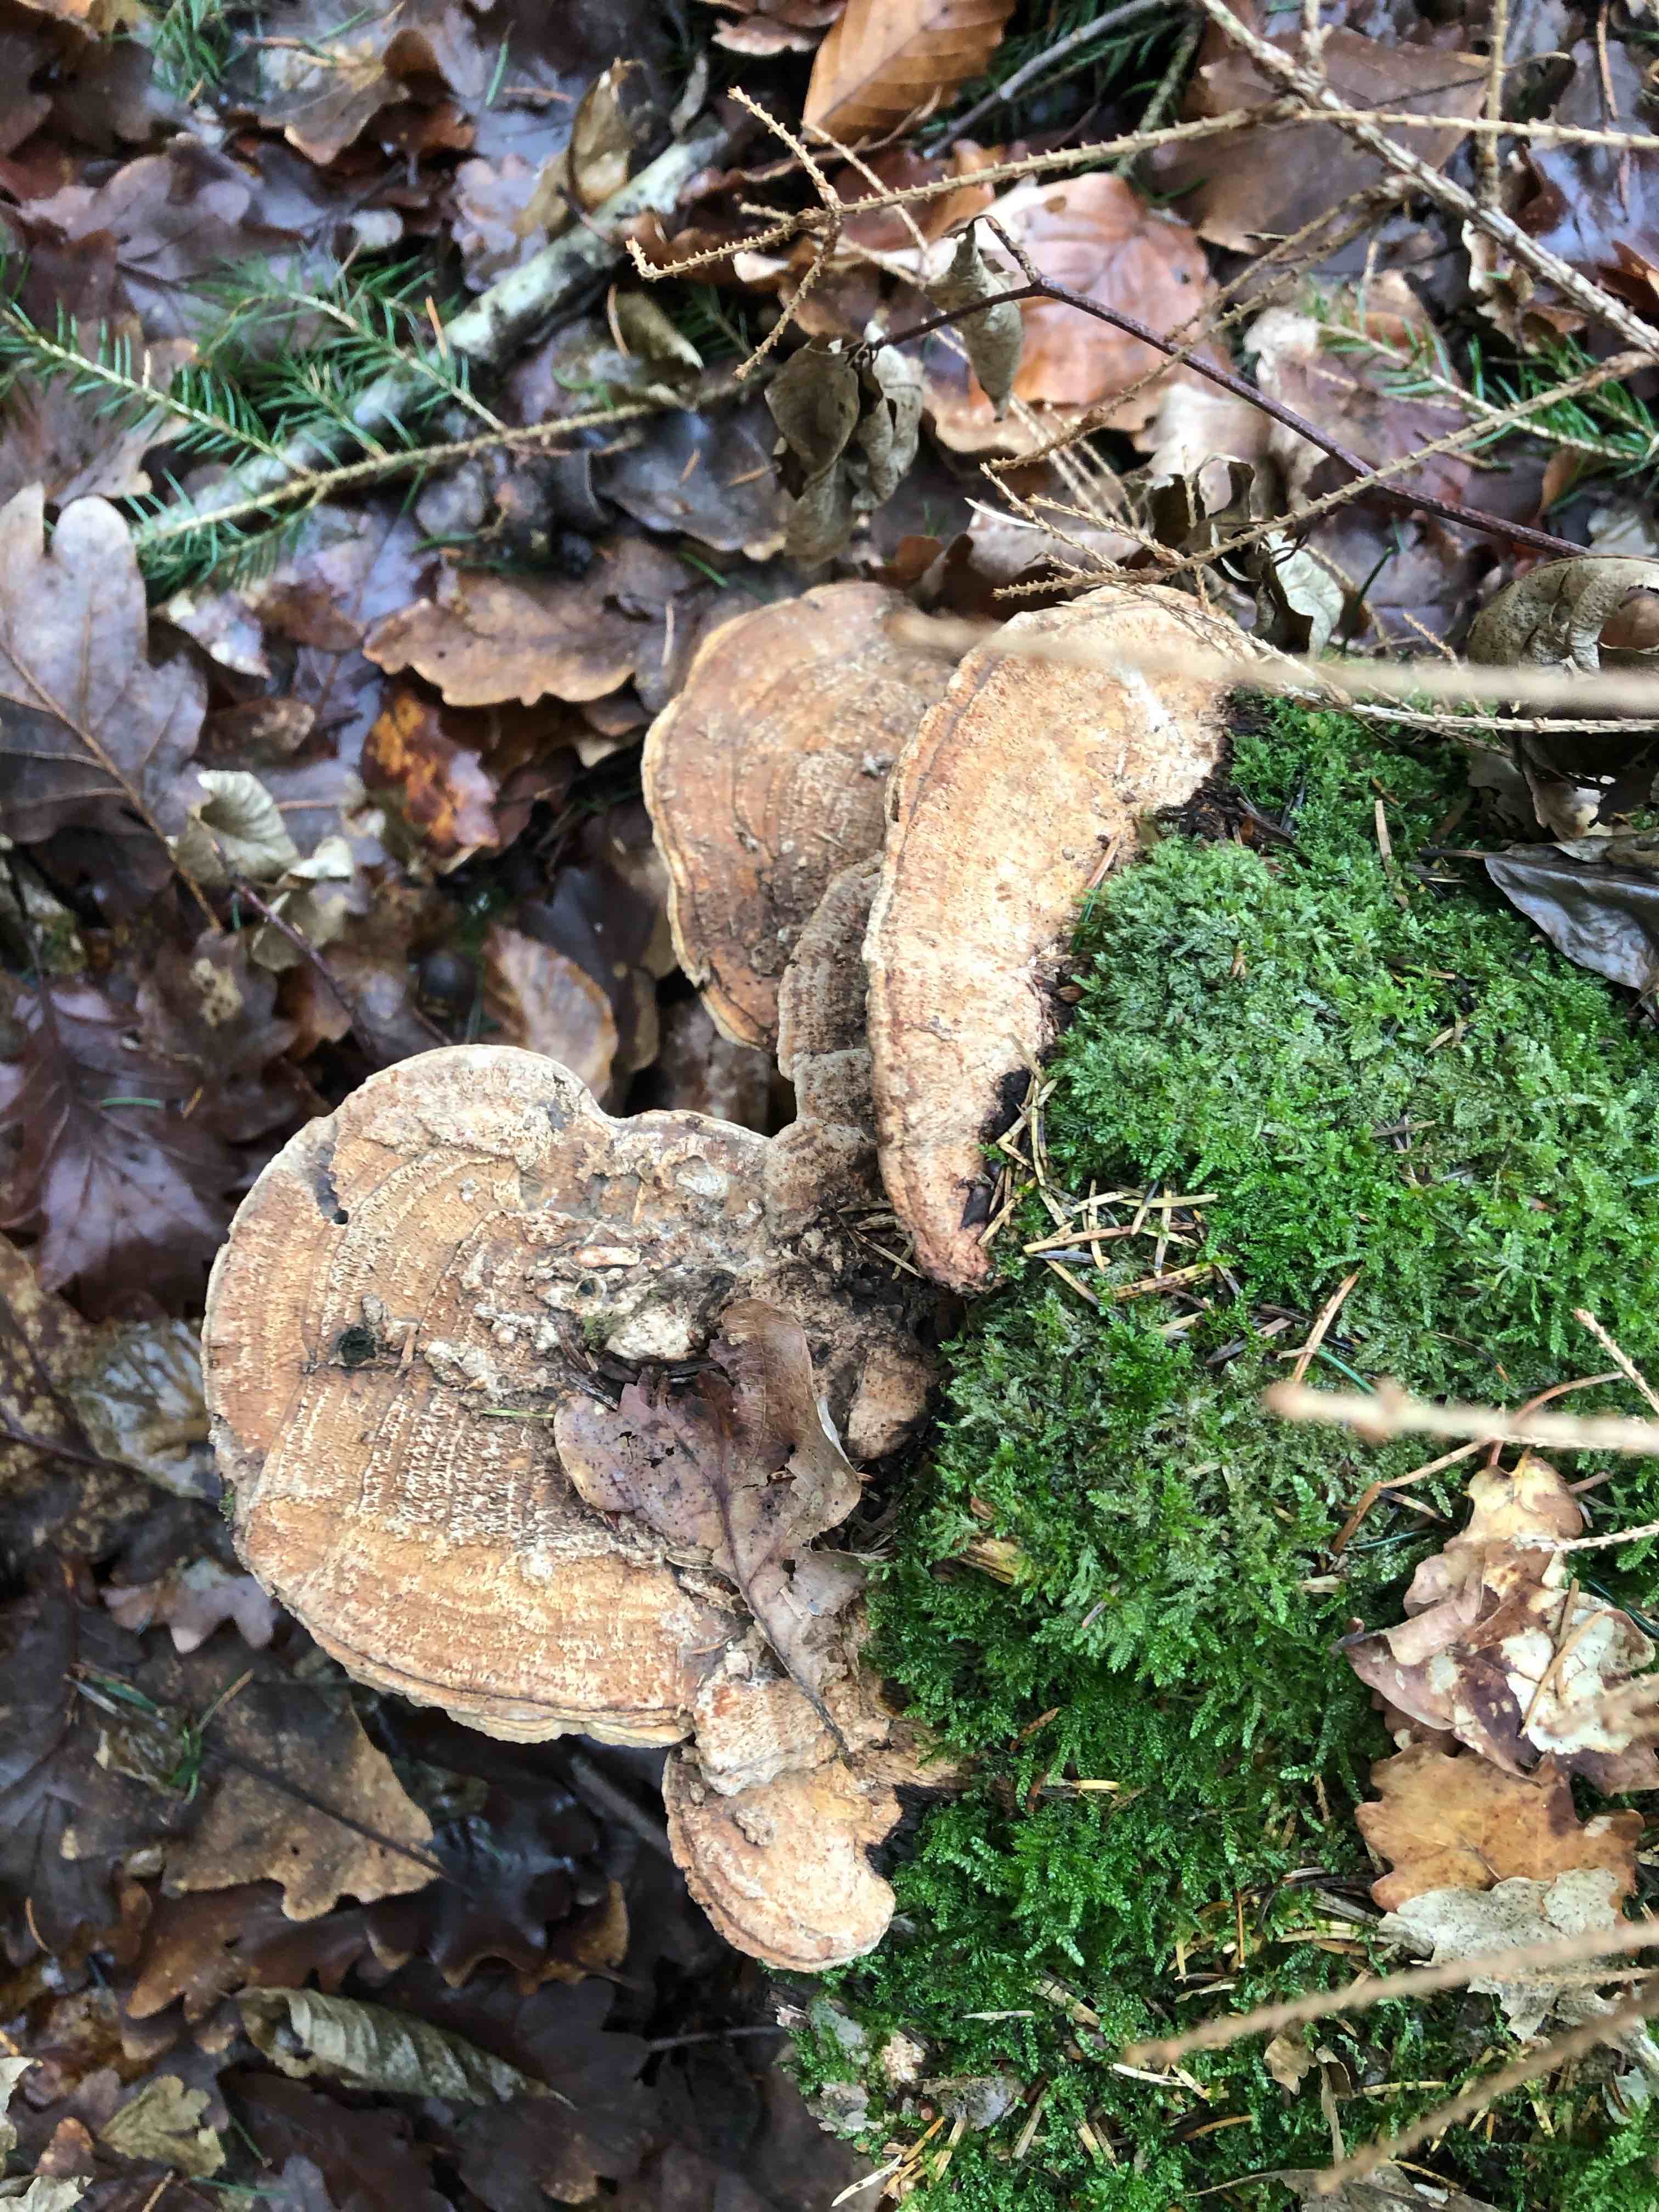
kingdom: Fungi
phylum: Basidiomycota
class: Agaricomycetes
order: Polyporales
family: Fomitopsidaceae
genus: Daedalea
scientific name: Daedalea quercina
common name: ege-labyrintsvamp
